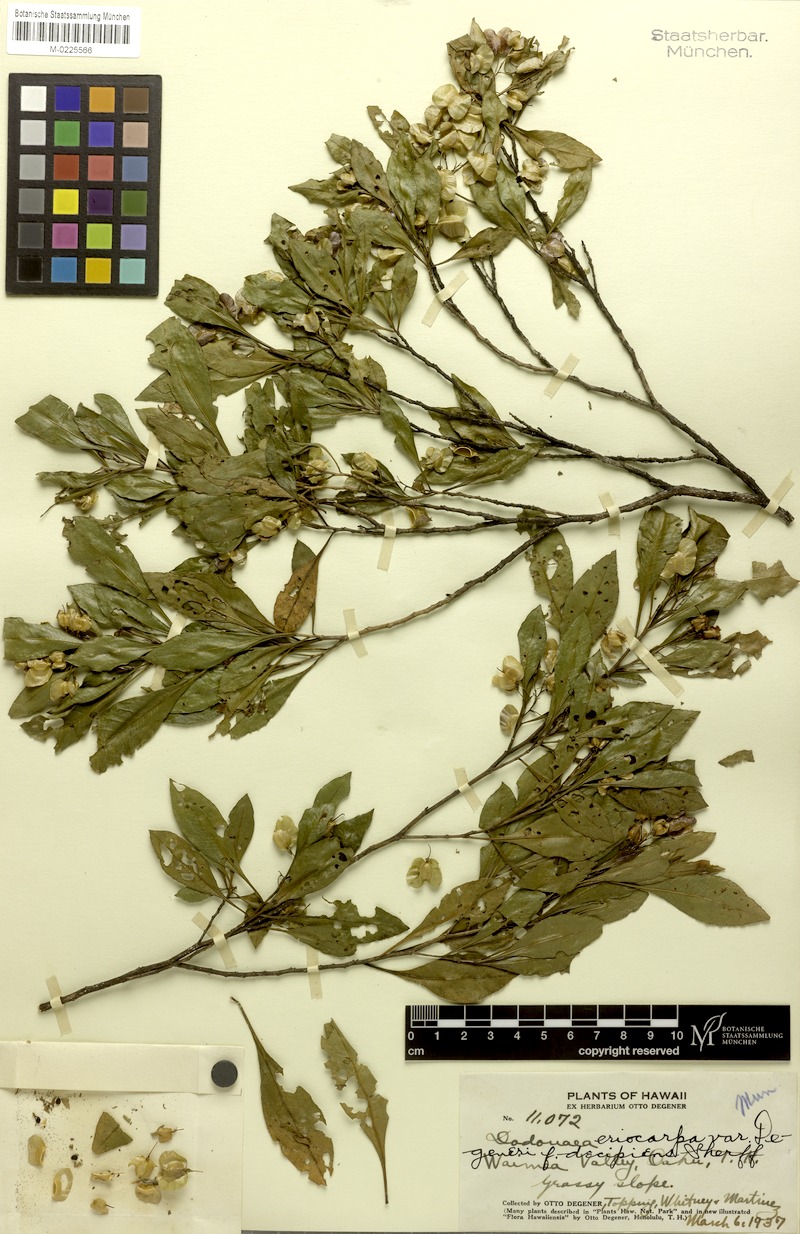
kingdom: Plantae
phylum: Tracheophyta
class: Magnoliopsida
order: Sapindales
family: Sapindaceae
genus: Dodonaea
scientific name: Dodonaea viscosa
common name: Hopbush
